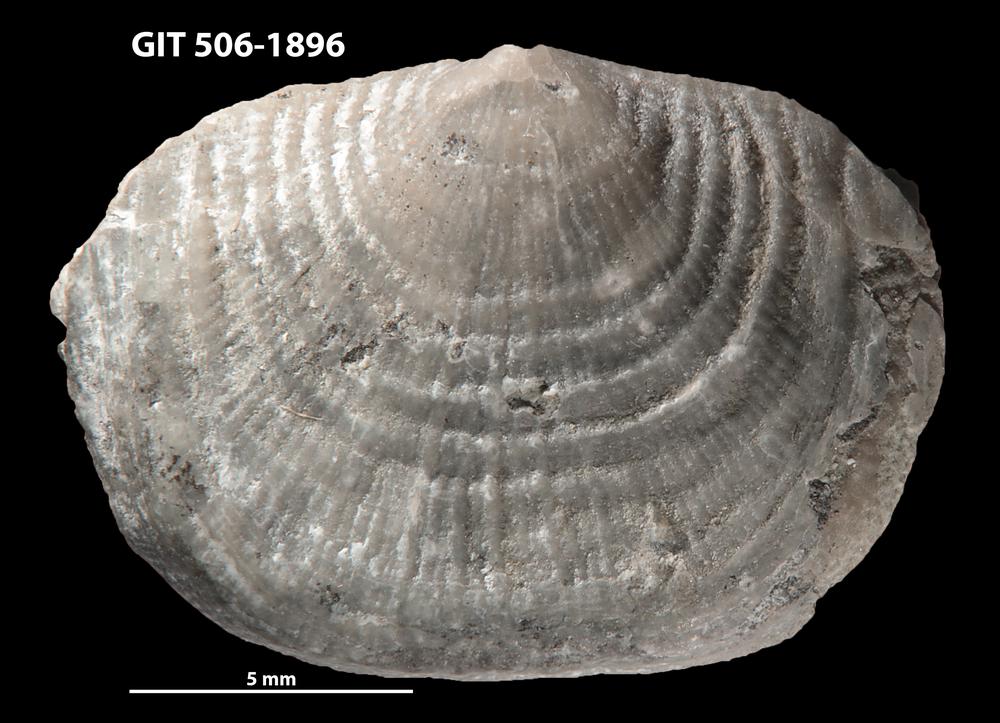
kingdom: Animalia
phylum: Brachiopoda
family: Strophomenidae
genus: Leptaena
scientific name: Leptaena purpurea
